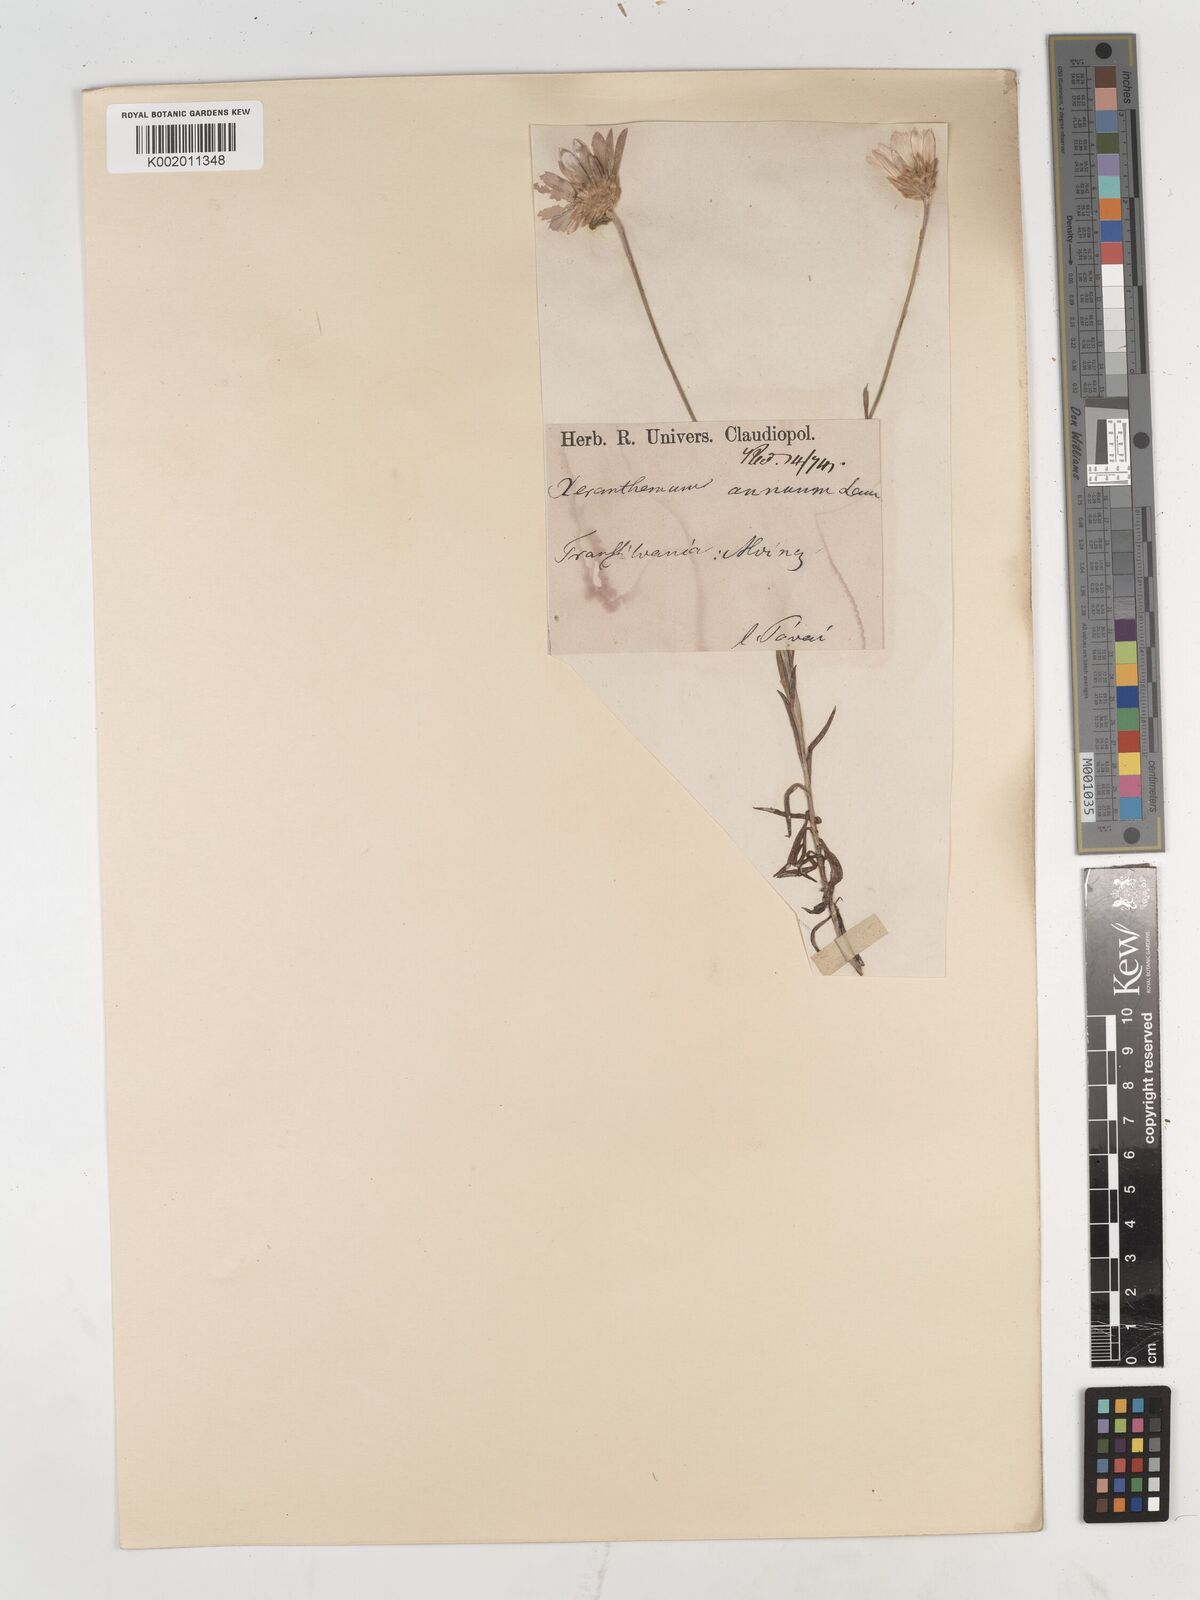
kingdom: Plantae
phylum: Tracheophyta
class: Magnoliopsida
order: Asterales
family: Asteraceae
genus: Xeranthemum
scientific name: Xeranthemum annuum
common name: Immortelle
